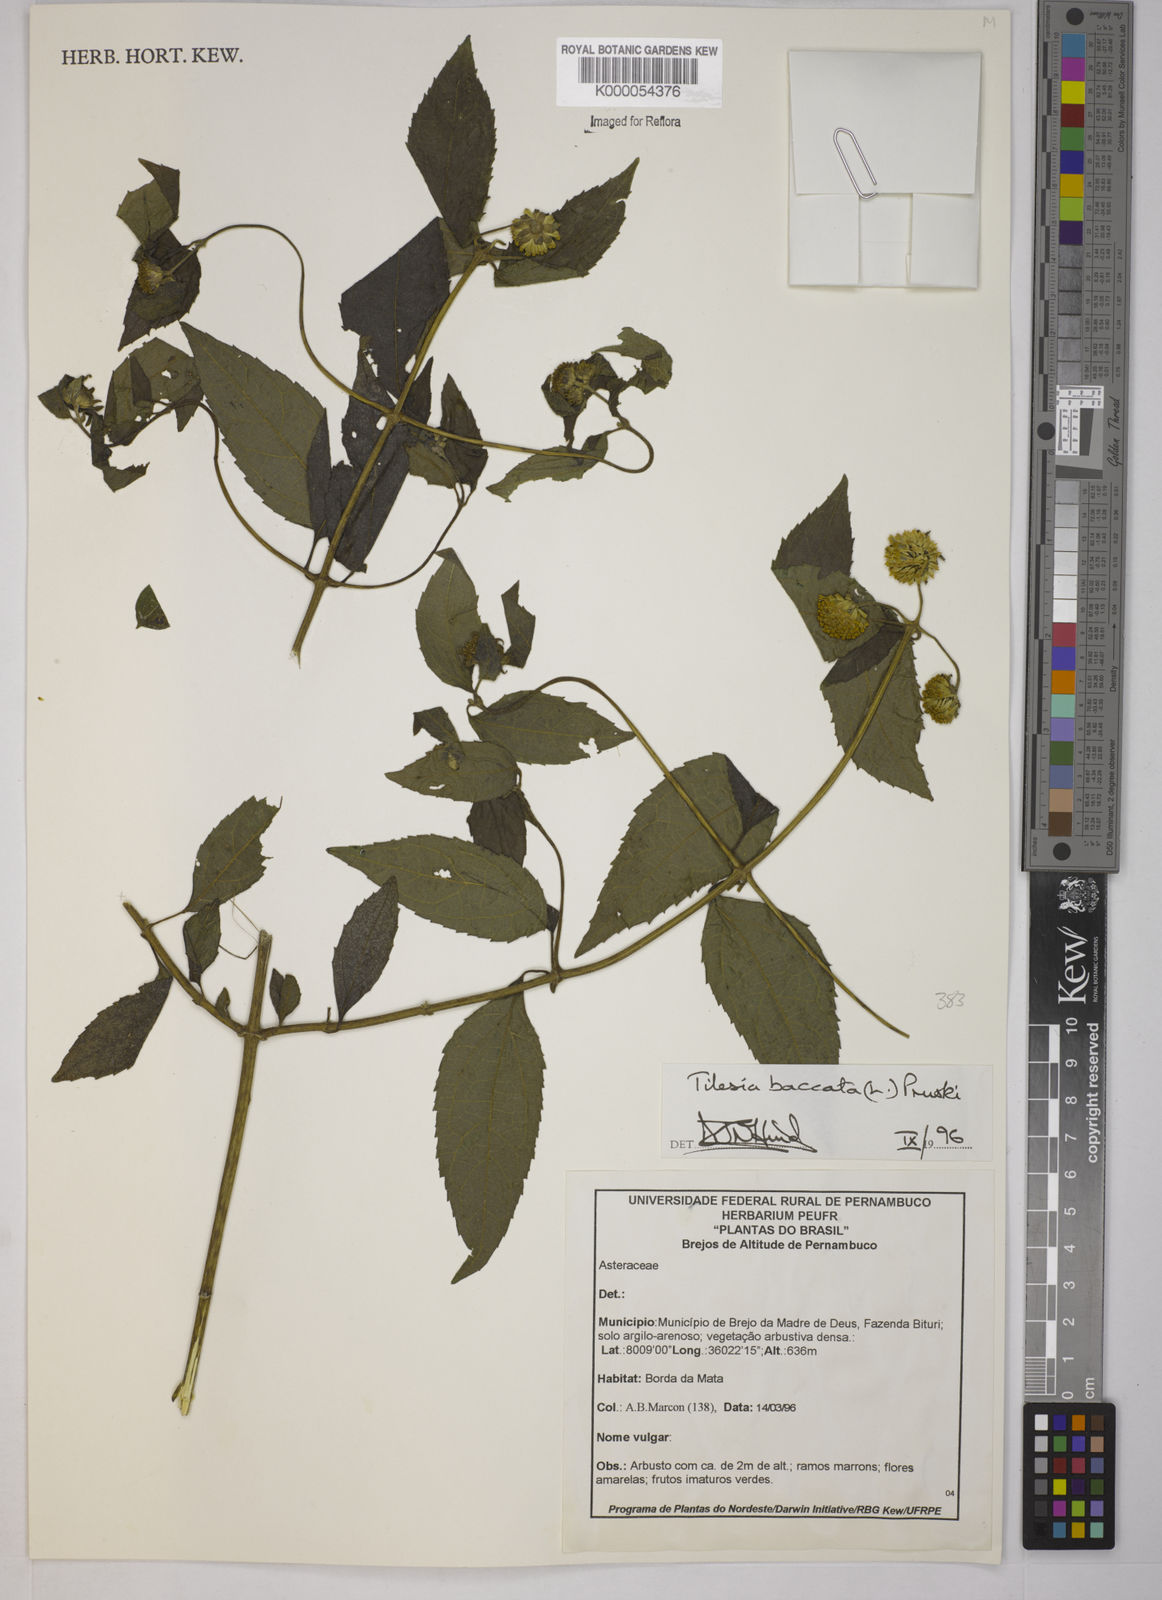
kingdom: Plantae
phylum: Tracheophyta
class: Magnoliopsida
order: Asterales
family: Asteraceae
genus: Tilesia
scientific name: Tilesia baccata
